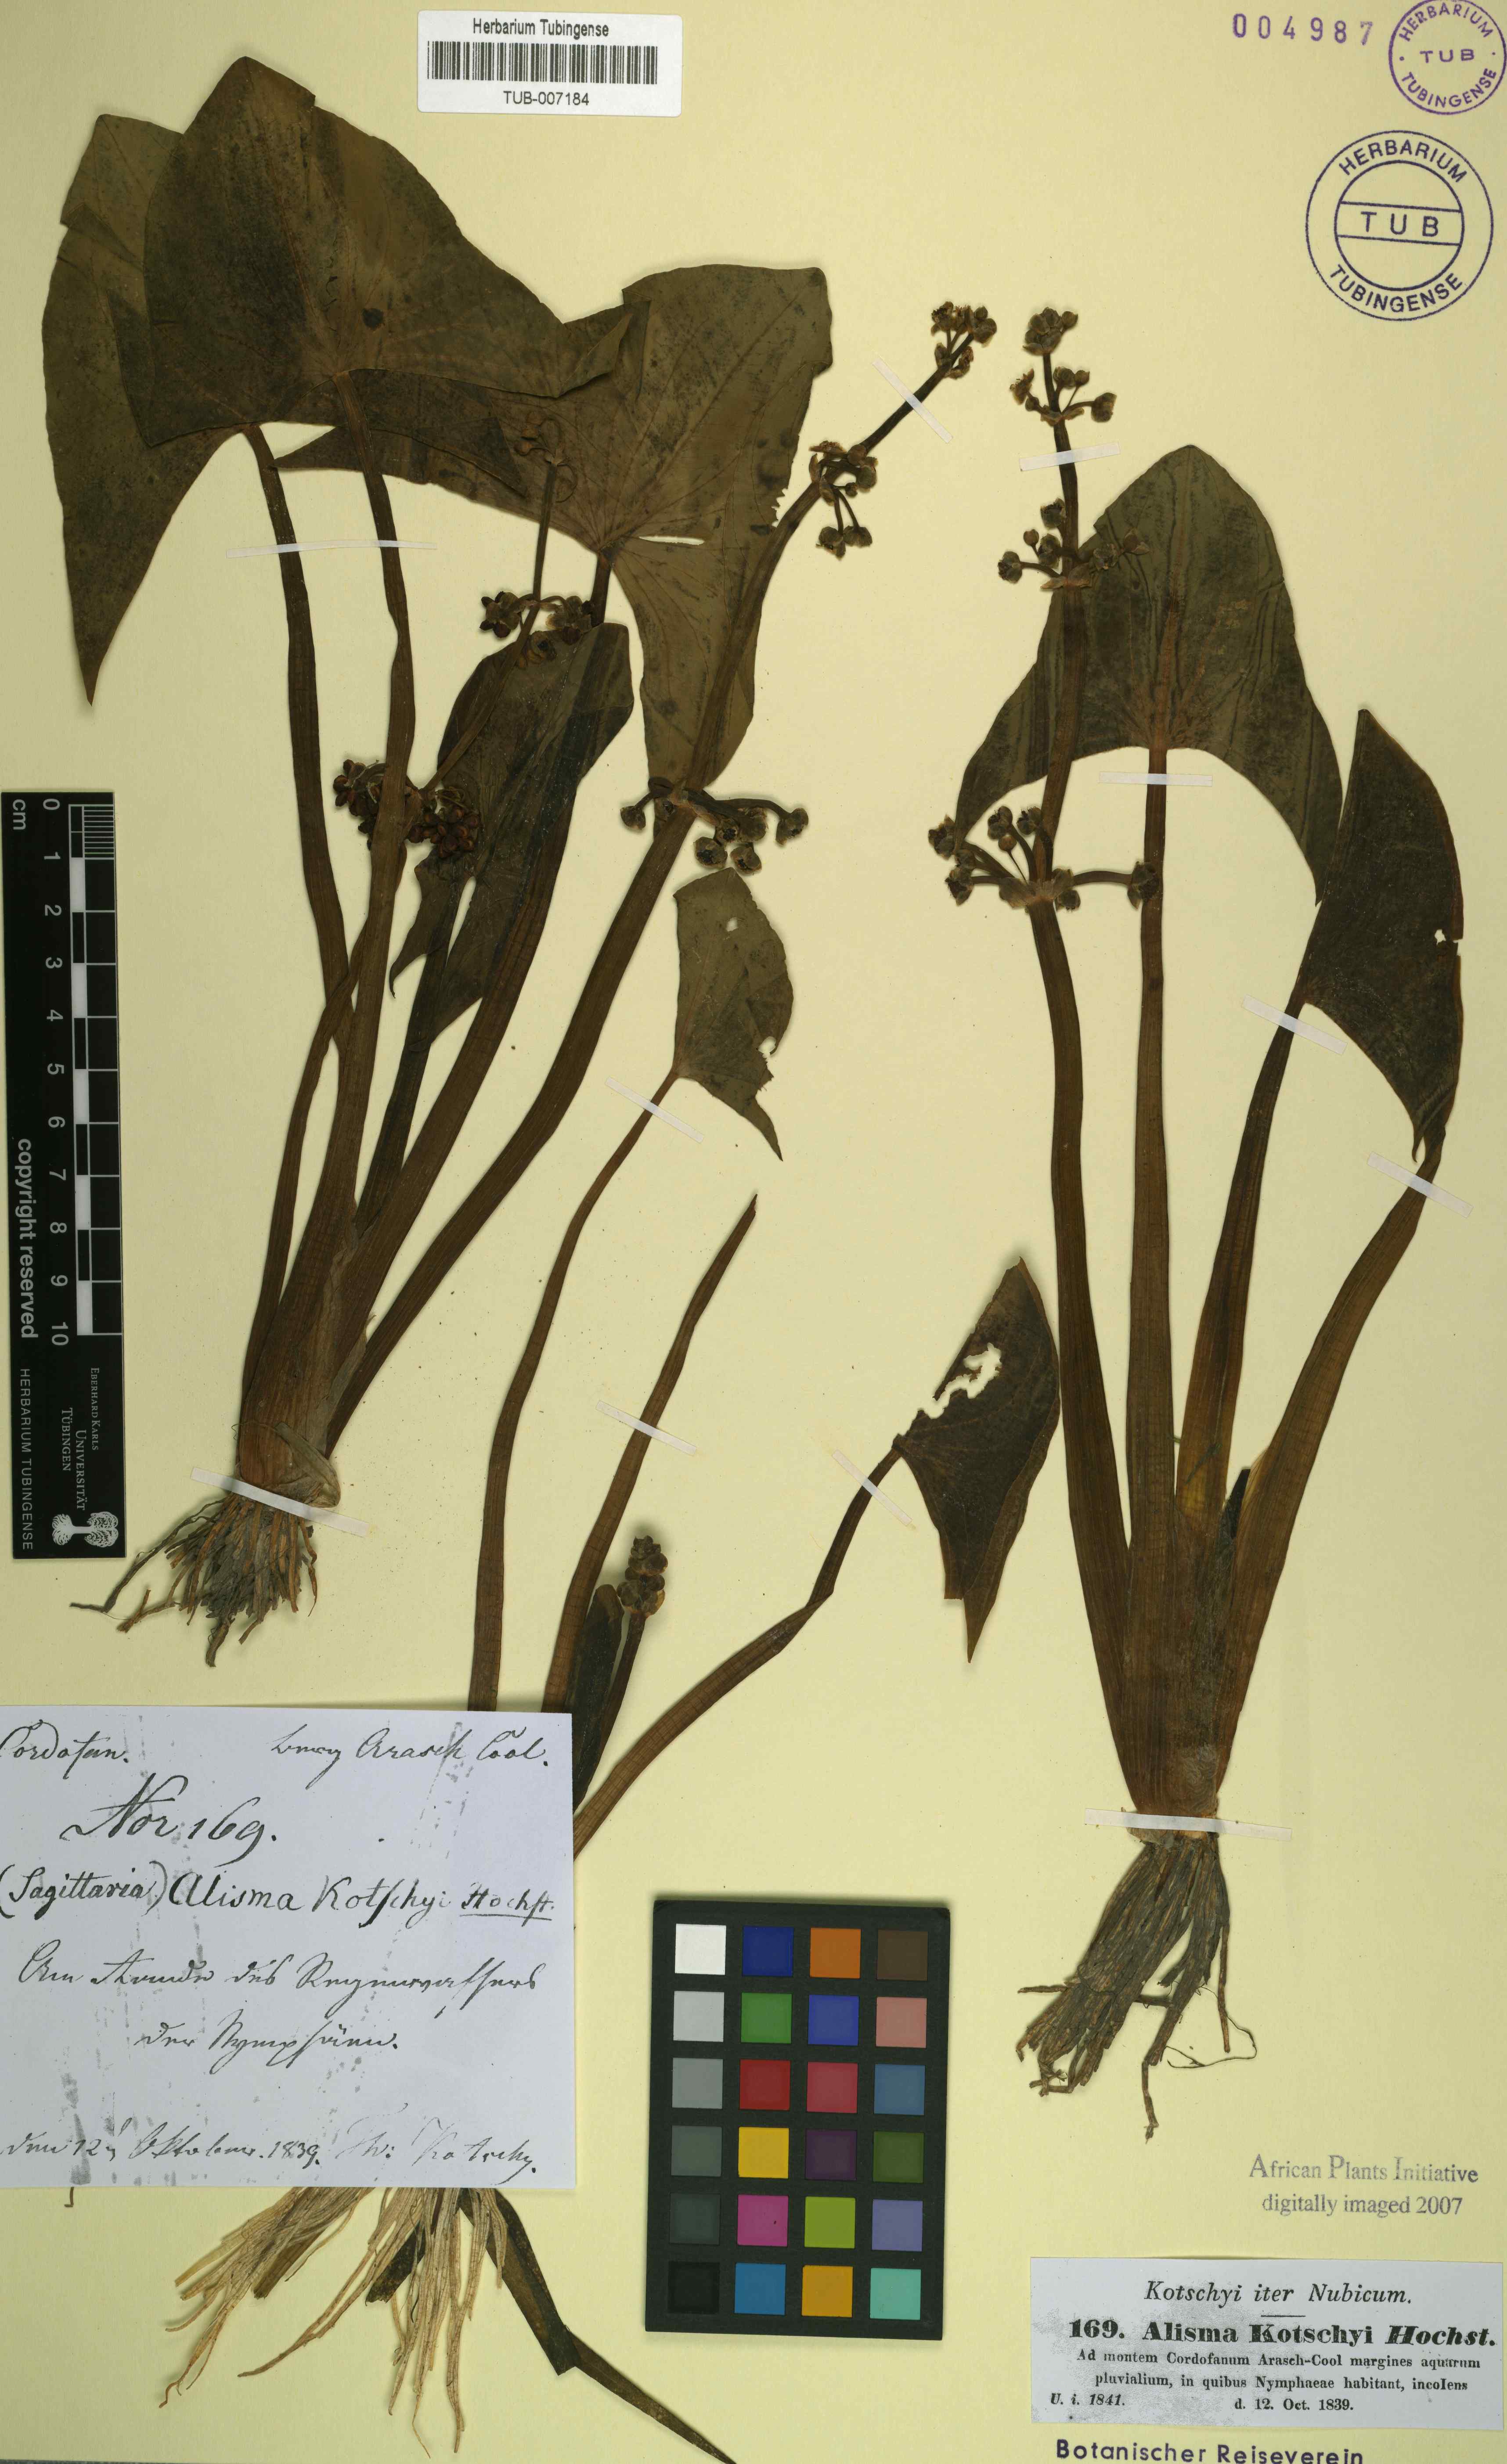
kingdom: Plantae
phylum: Tracheophyta
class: Liliopsida
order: Alismatales
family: Alismataceae
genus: Limnophyton
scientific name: Limnophyton obtusifolium
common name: Arrow head
